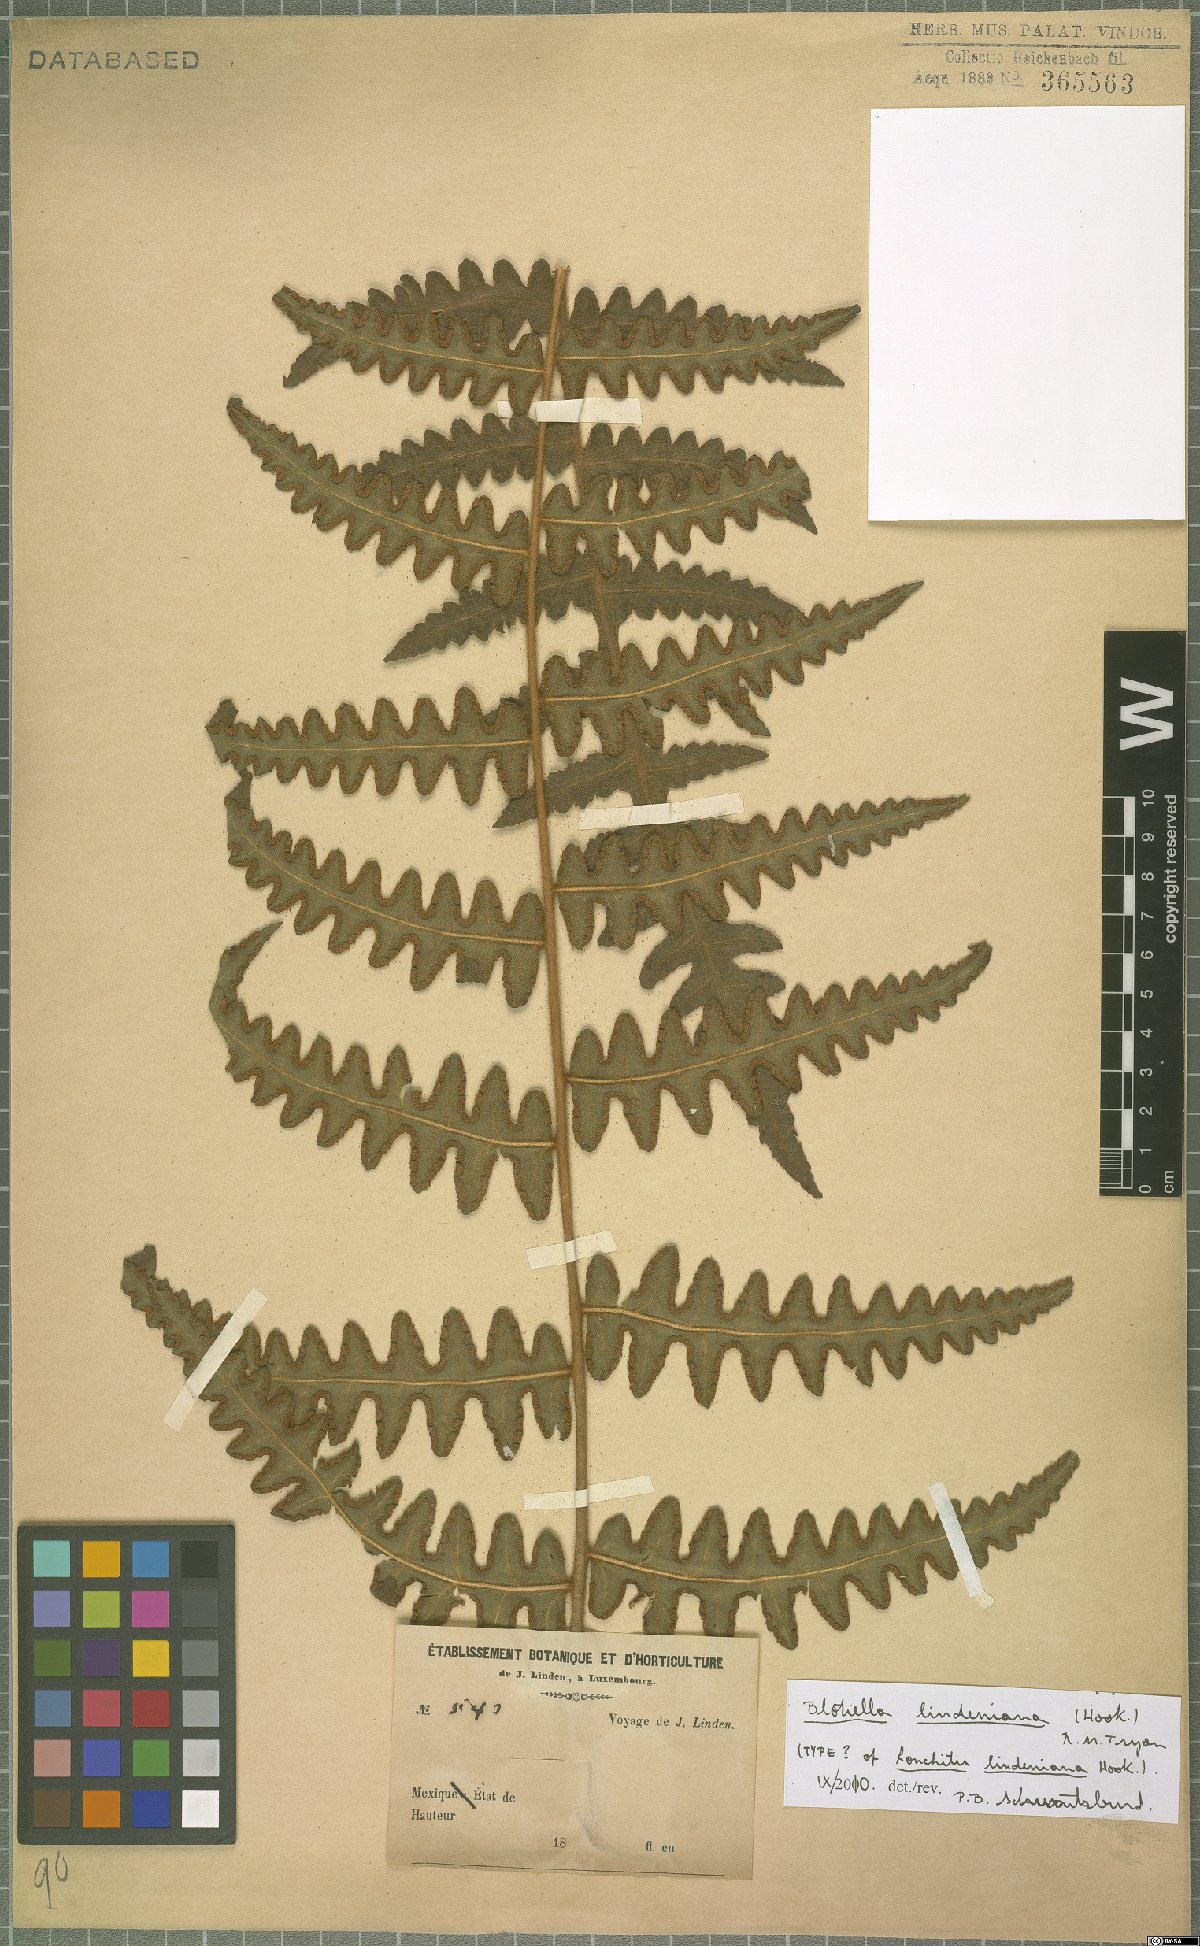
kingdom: Plantae
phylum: Tracheophyta
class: Polypodiopsida
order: Polypodiales
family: Dennstaedtiaceae
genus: Blotiella
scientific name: Blotiella aurita
